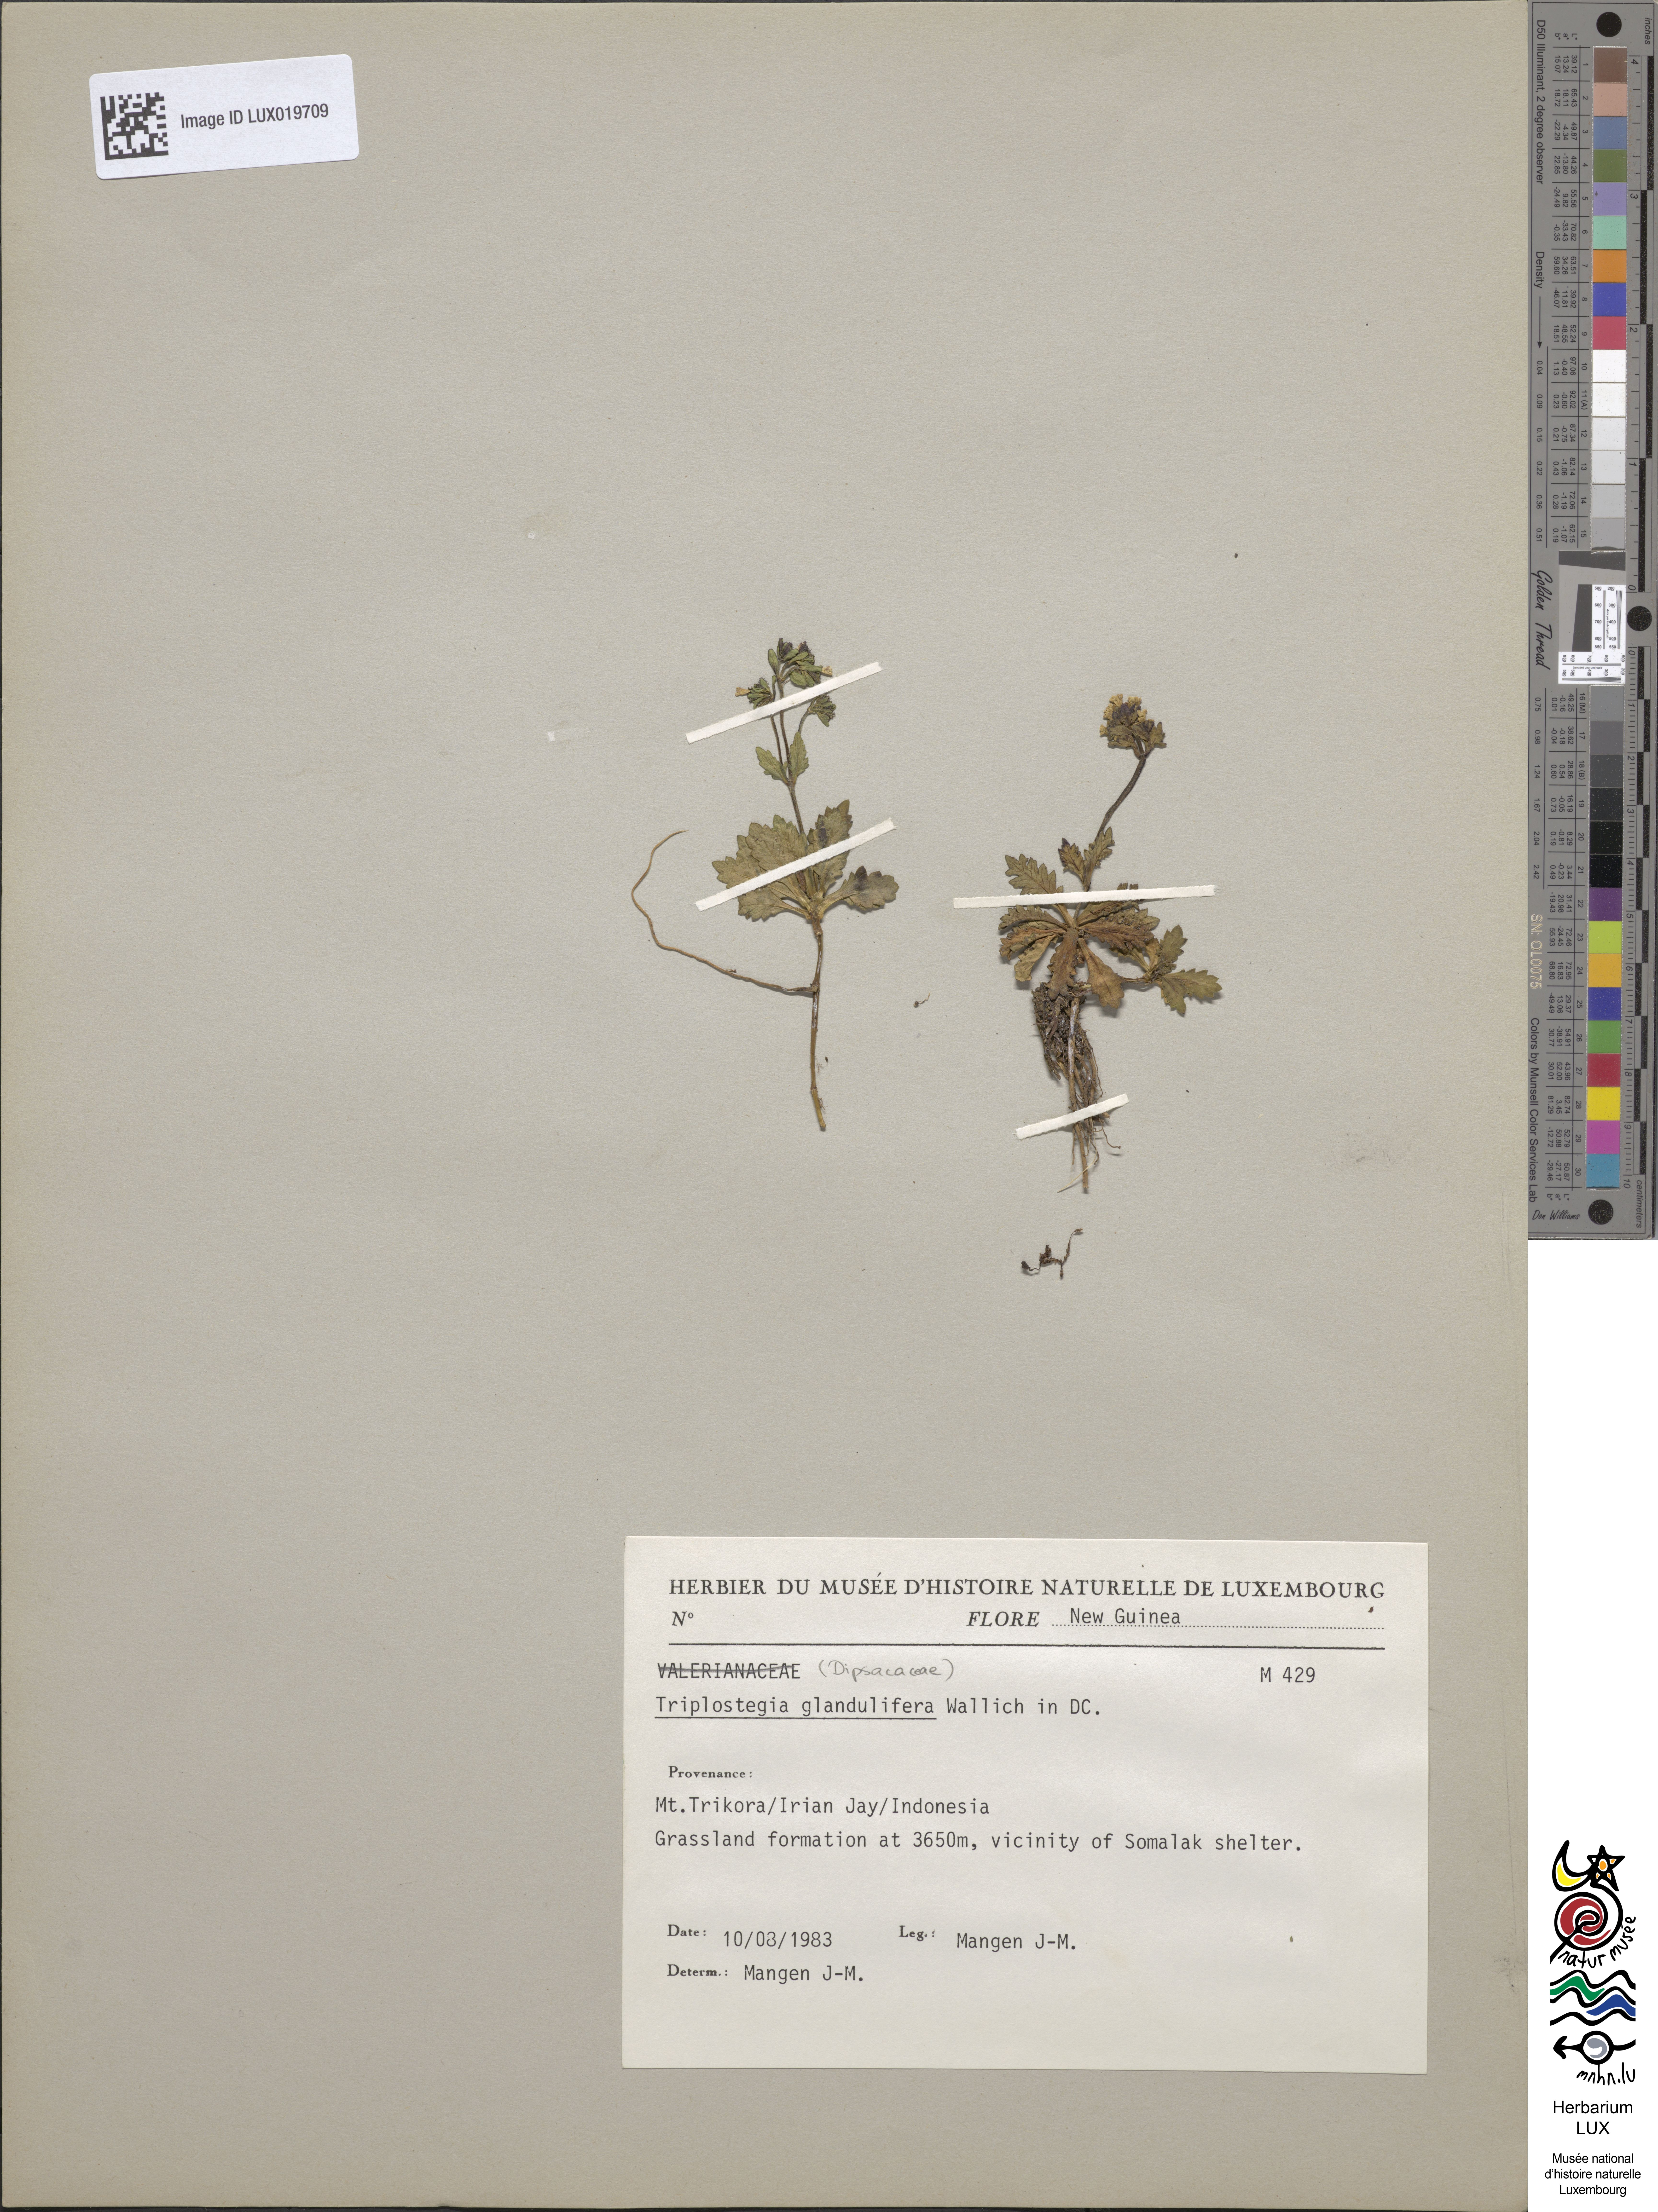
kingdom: Plantae
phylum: Tracheophyta
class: Magnoliopsida
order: Dipsacales
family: Caprifoliaceae
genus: Triplostegia
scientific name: Triplostegia glandulifera
